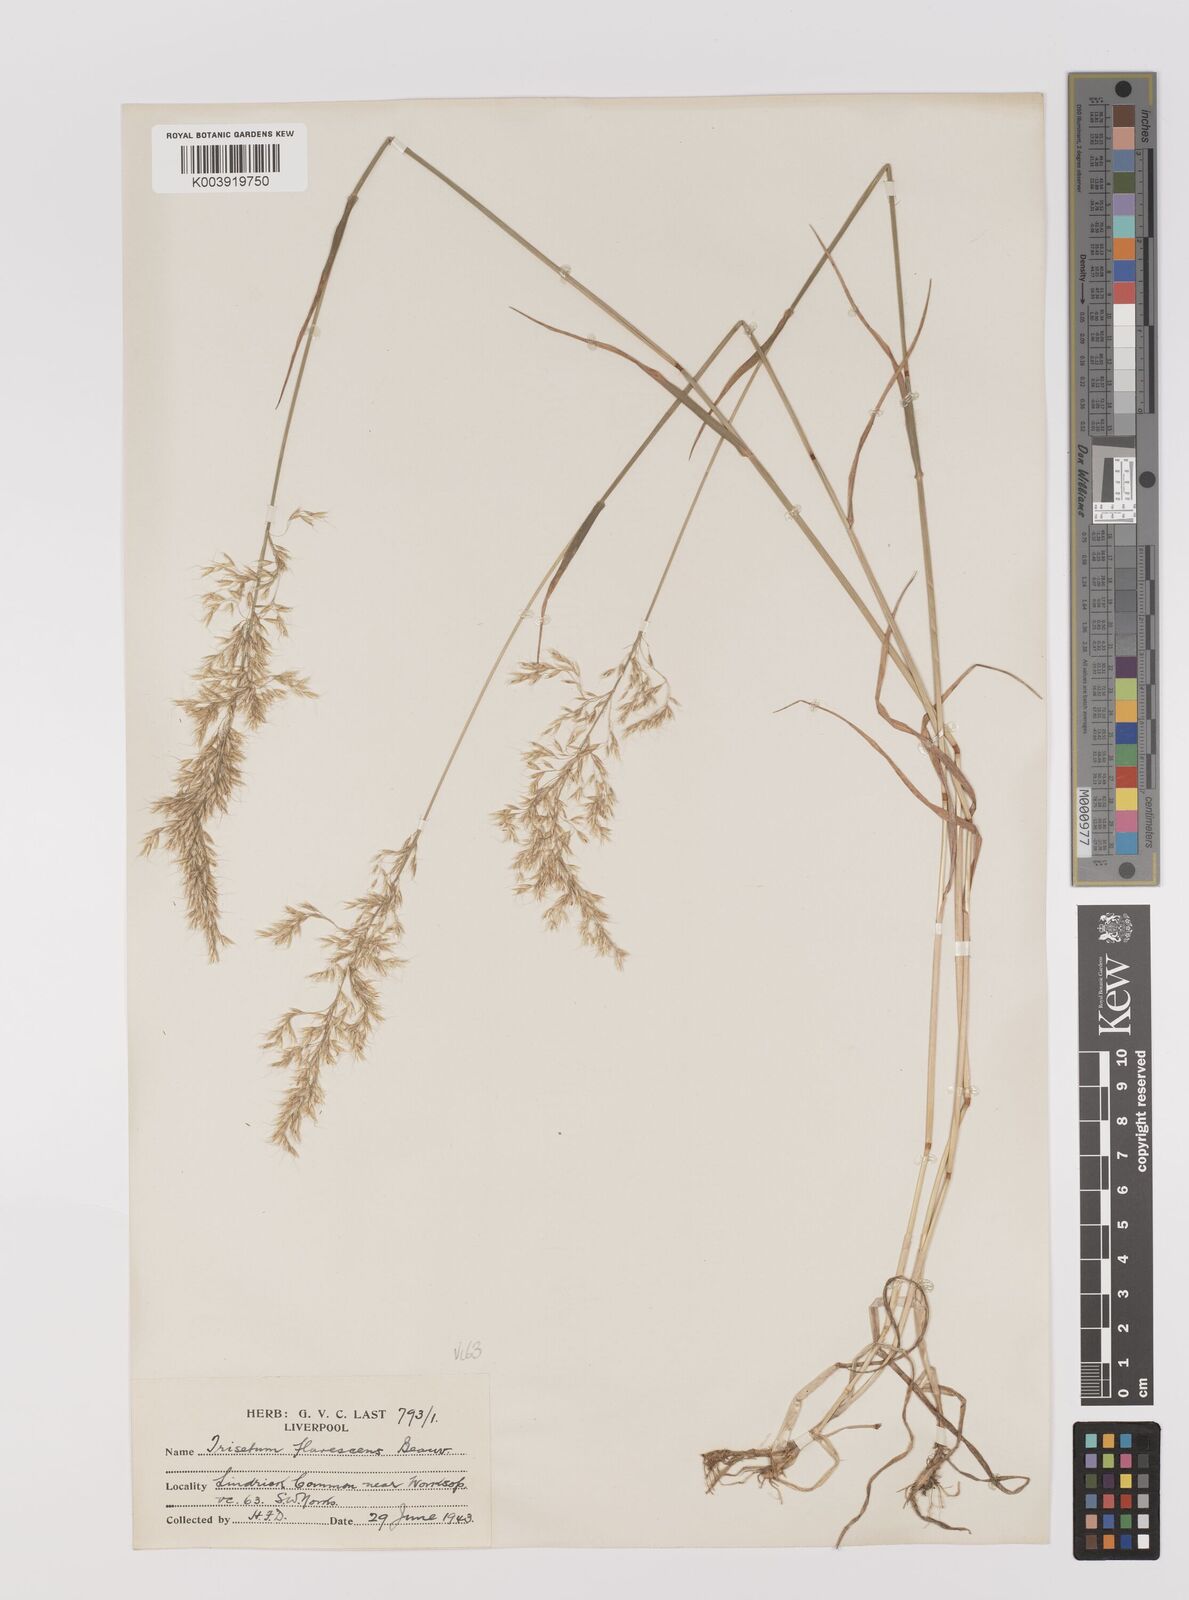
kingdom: Plantae
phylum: Tracheophyta
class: Liliopsida
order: Poales
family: Poaceae
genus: Trisetum
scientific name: Trisetum flavescens
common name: Yellow oat-grass
